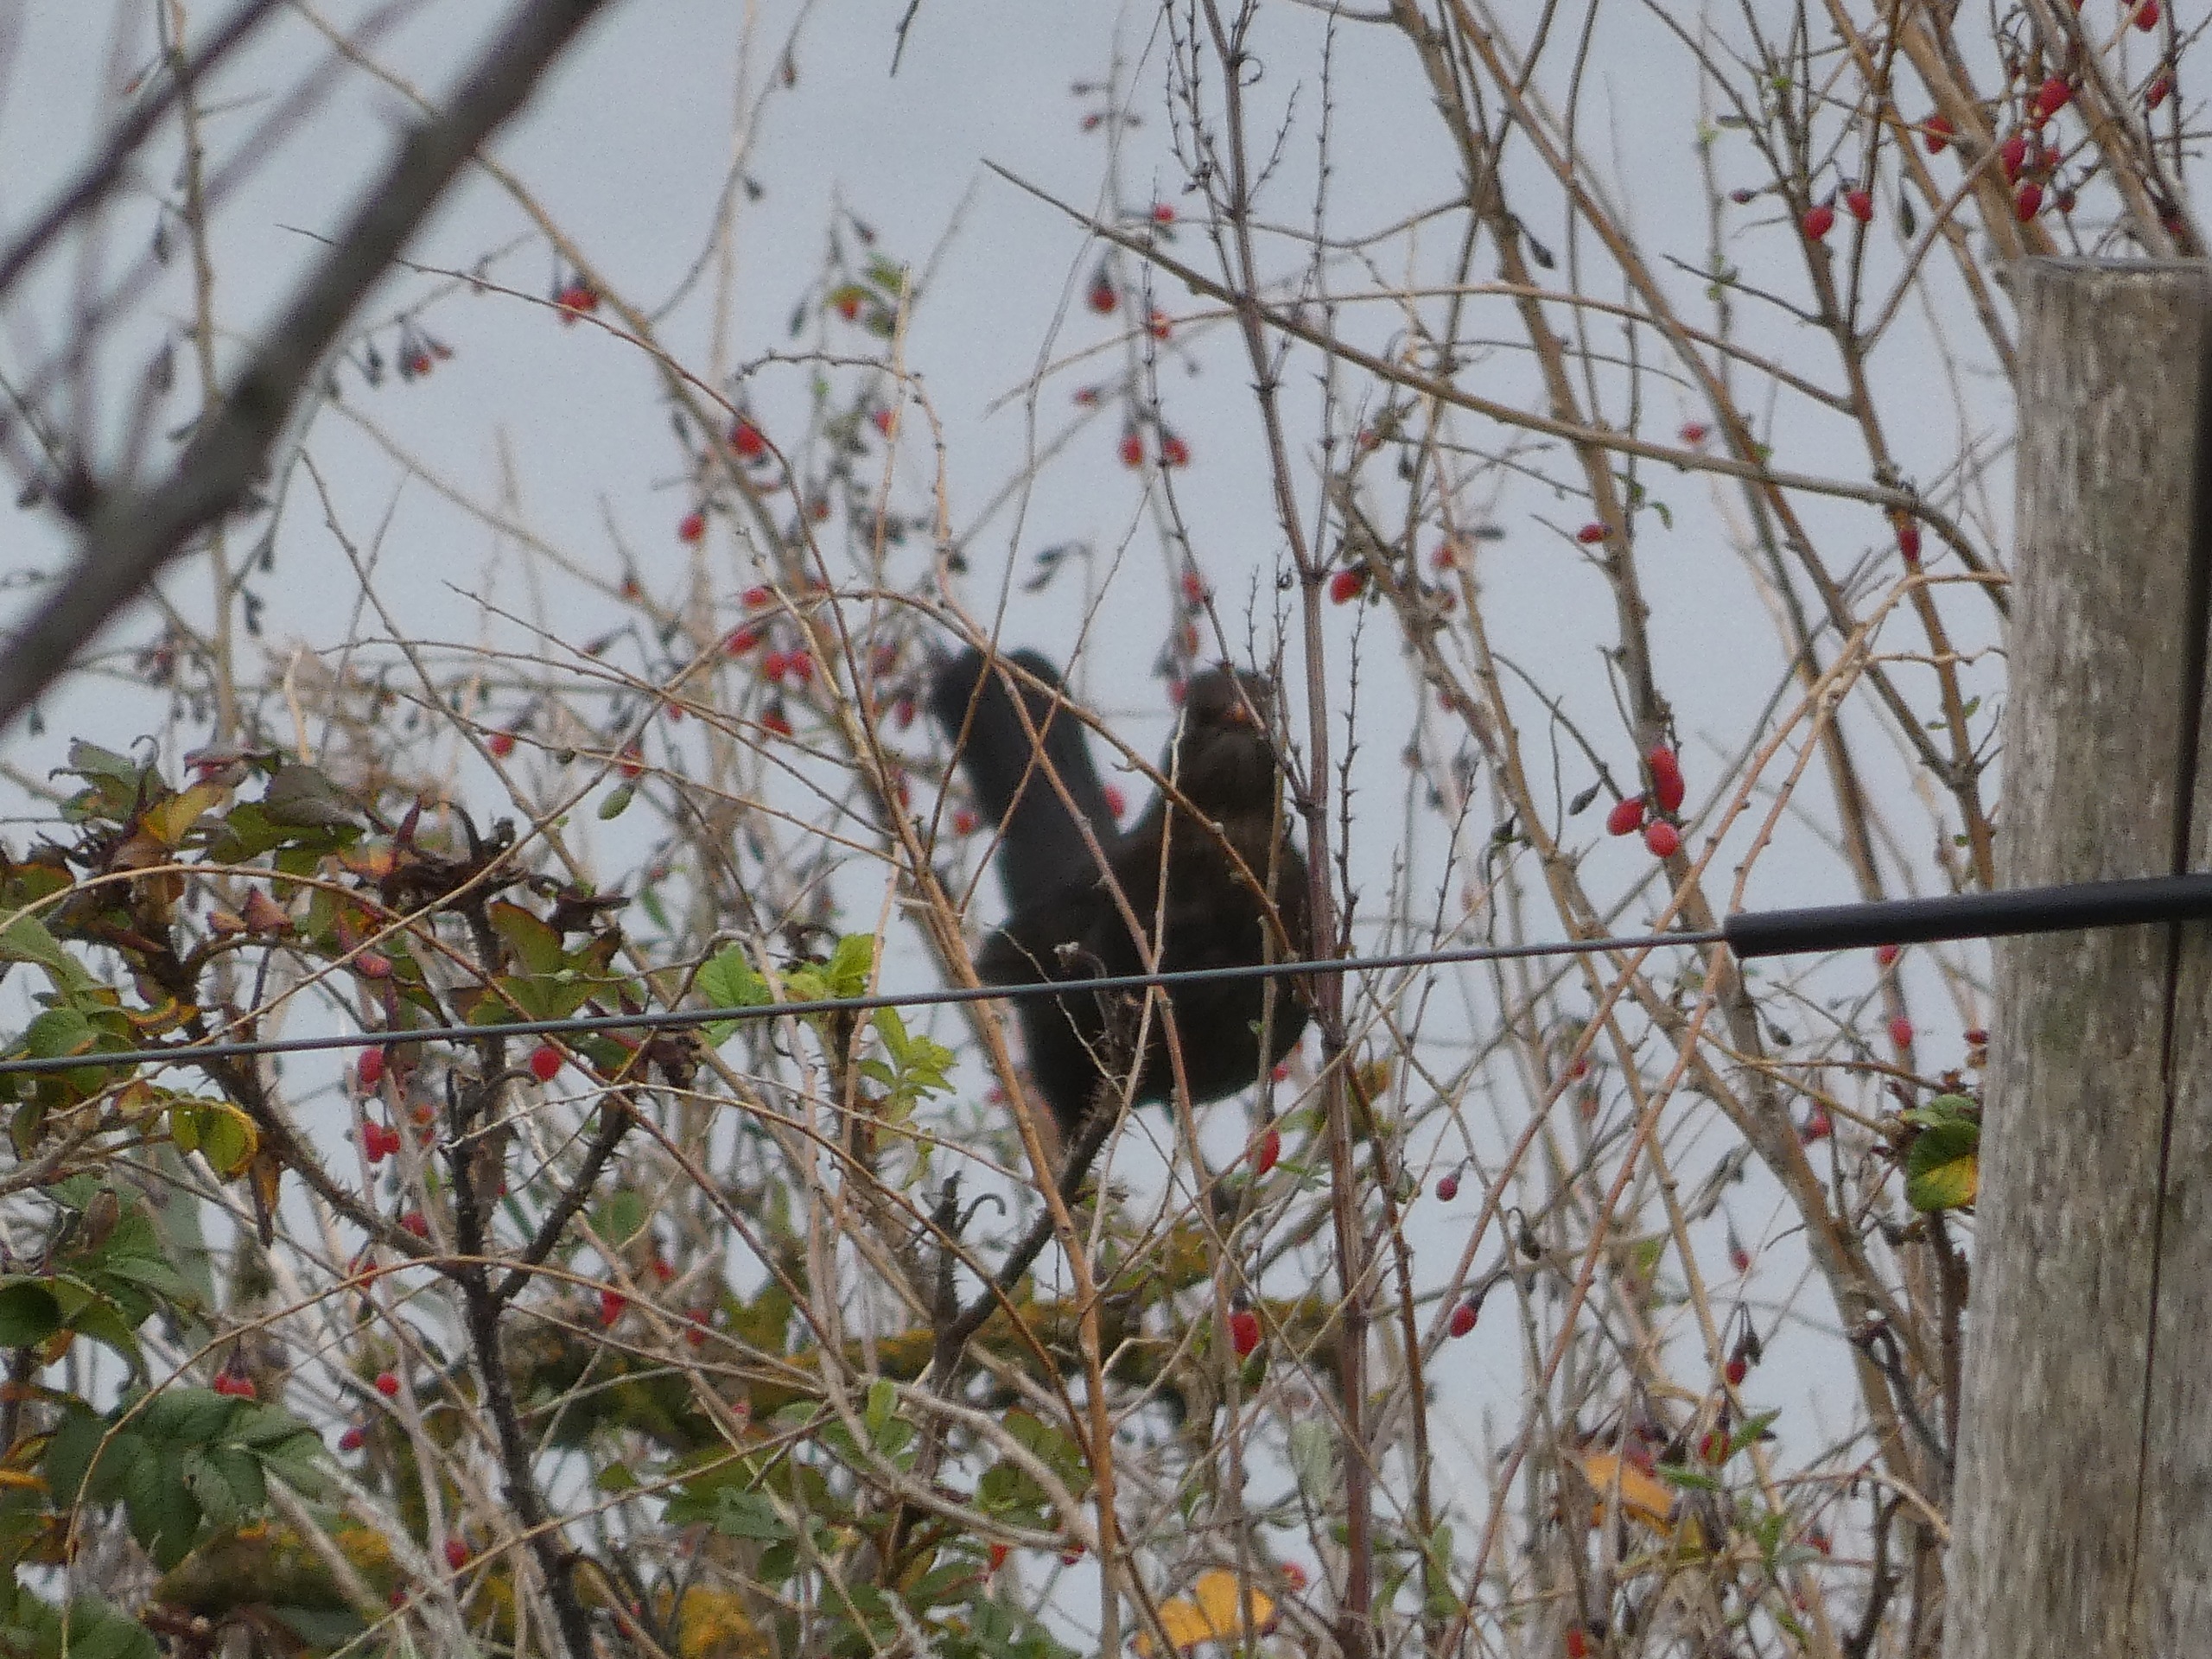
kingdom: Animalia
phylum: Chordata
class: Aves
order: Passeriformes
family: Turdidae
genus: Turdus
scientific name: Turdus merula
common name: Solsort
